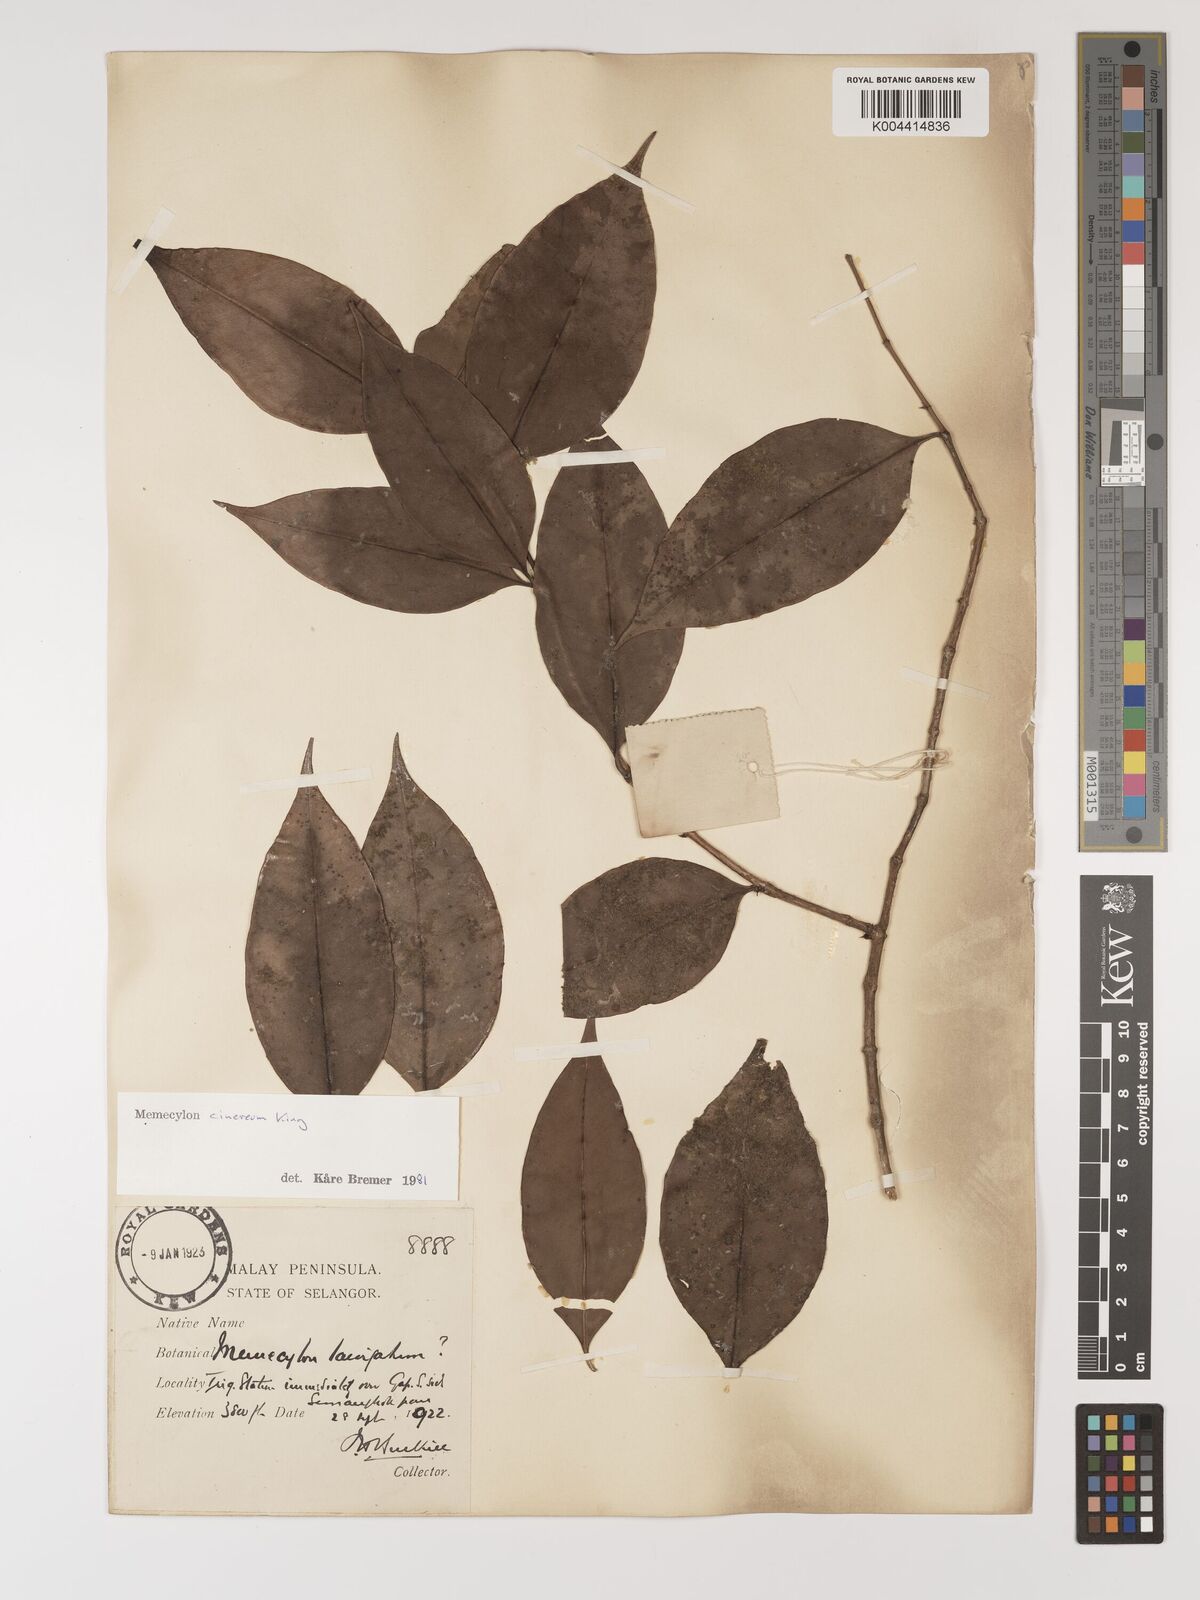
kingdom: Plantae
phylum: Tracheophyta
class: Magnoliopsida
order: Myrtales
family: Melastomataceae
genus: Memecylon
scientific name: Memecylon cinereum
